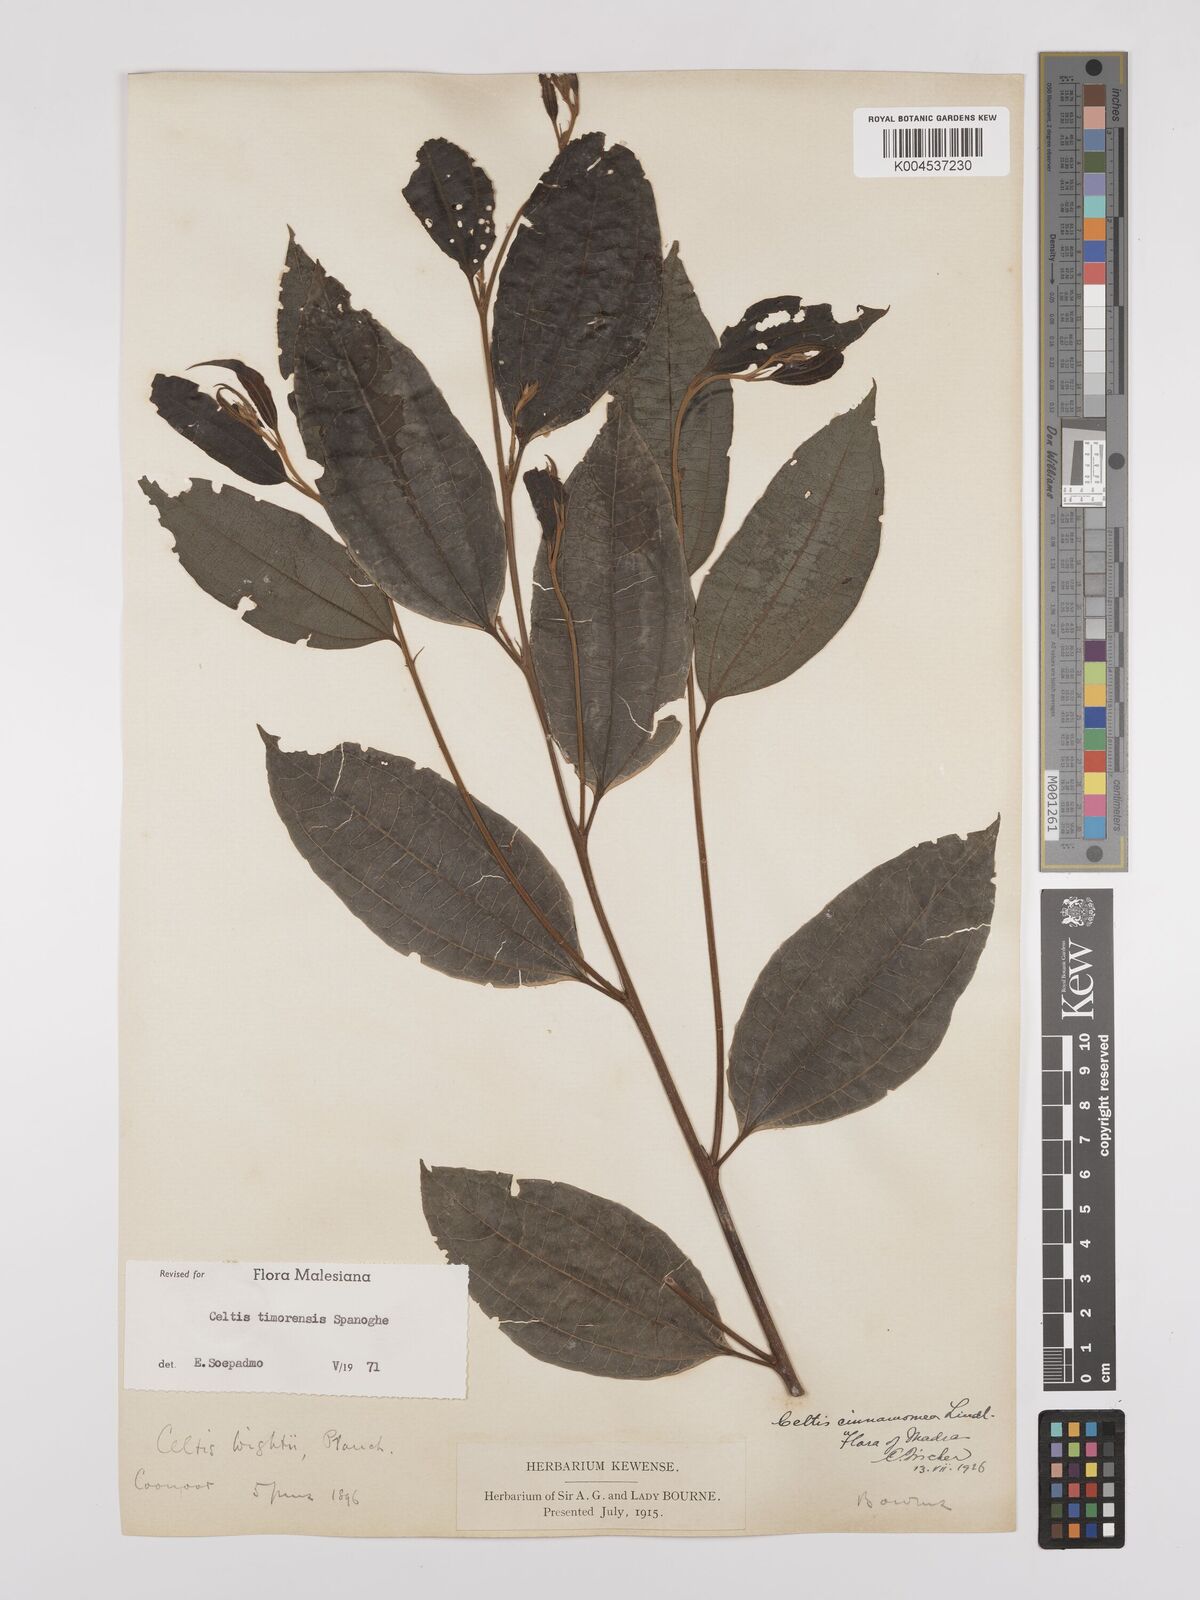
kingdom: Plantae
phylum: Tracheophyta
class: Magnoliopsida
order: Rosales
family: Cannabaceae
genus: Celtis
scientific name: Celtis timorensis
